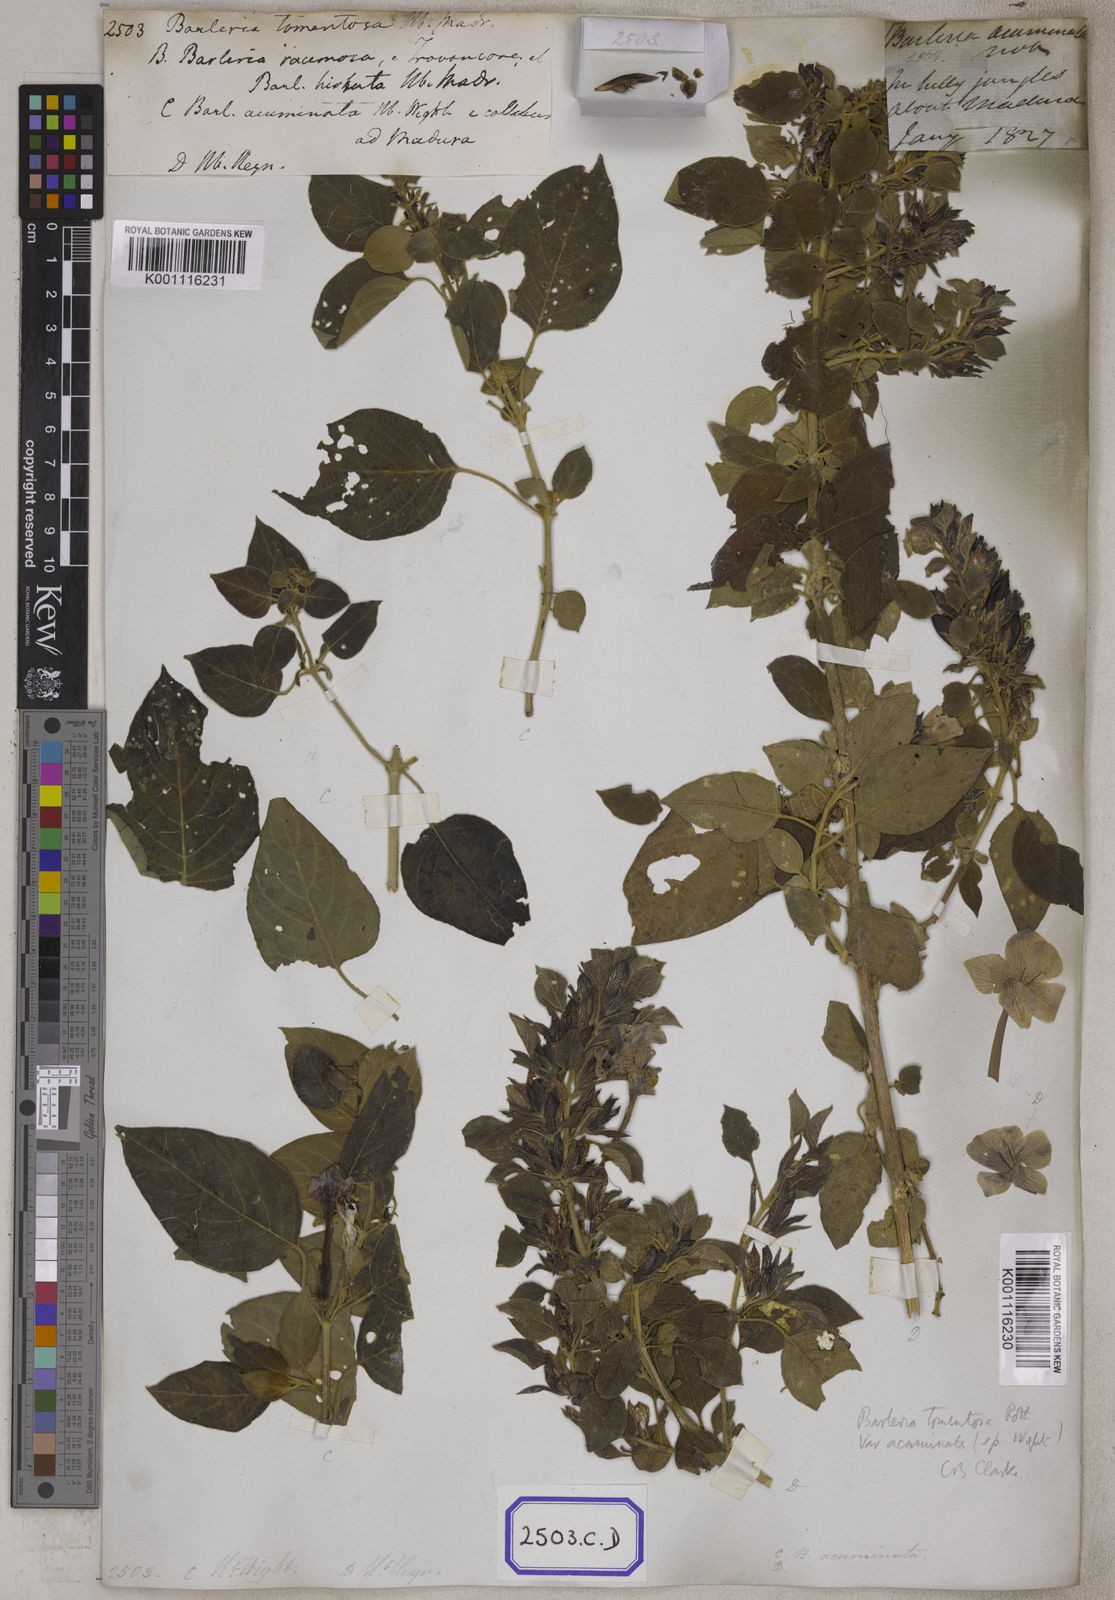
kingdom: Plantae
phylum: Tracheophyta
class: Magnoliopsida
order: Lamiales
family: Acanthaceae
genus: Barleria
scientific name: Barleria
